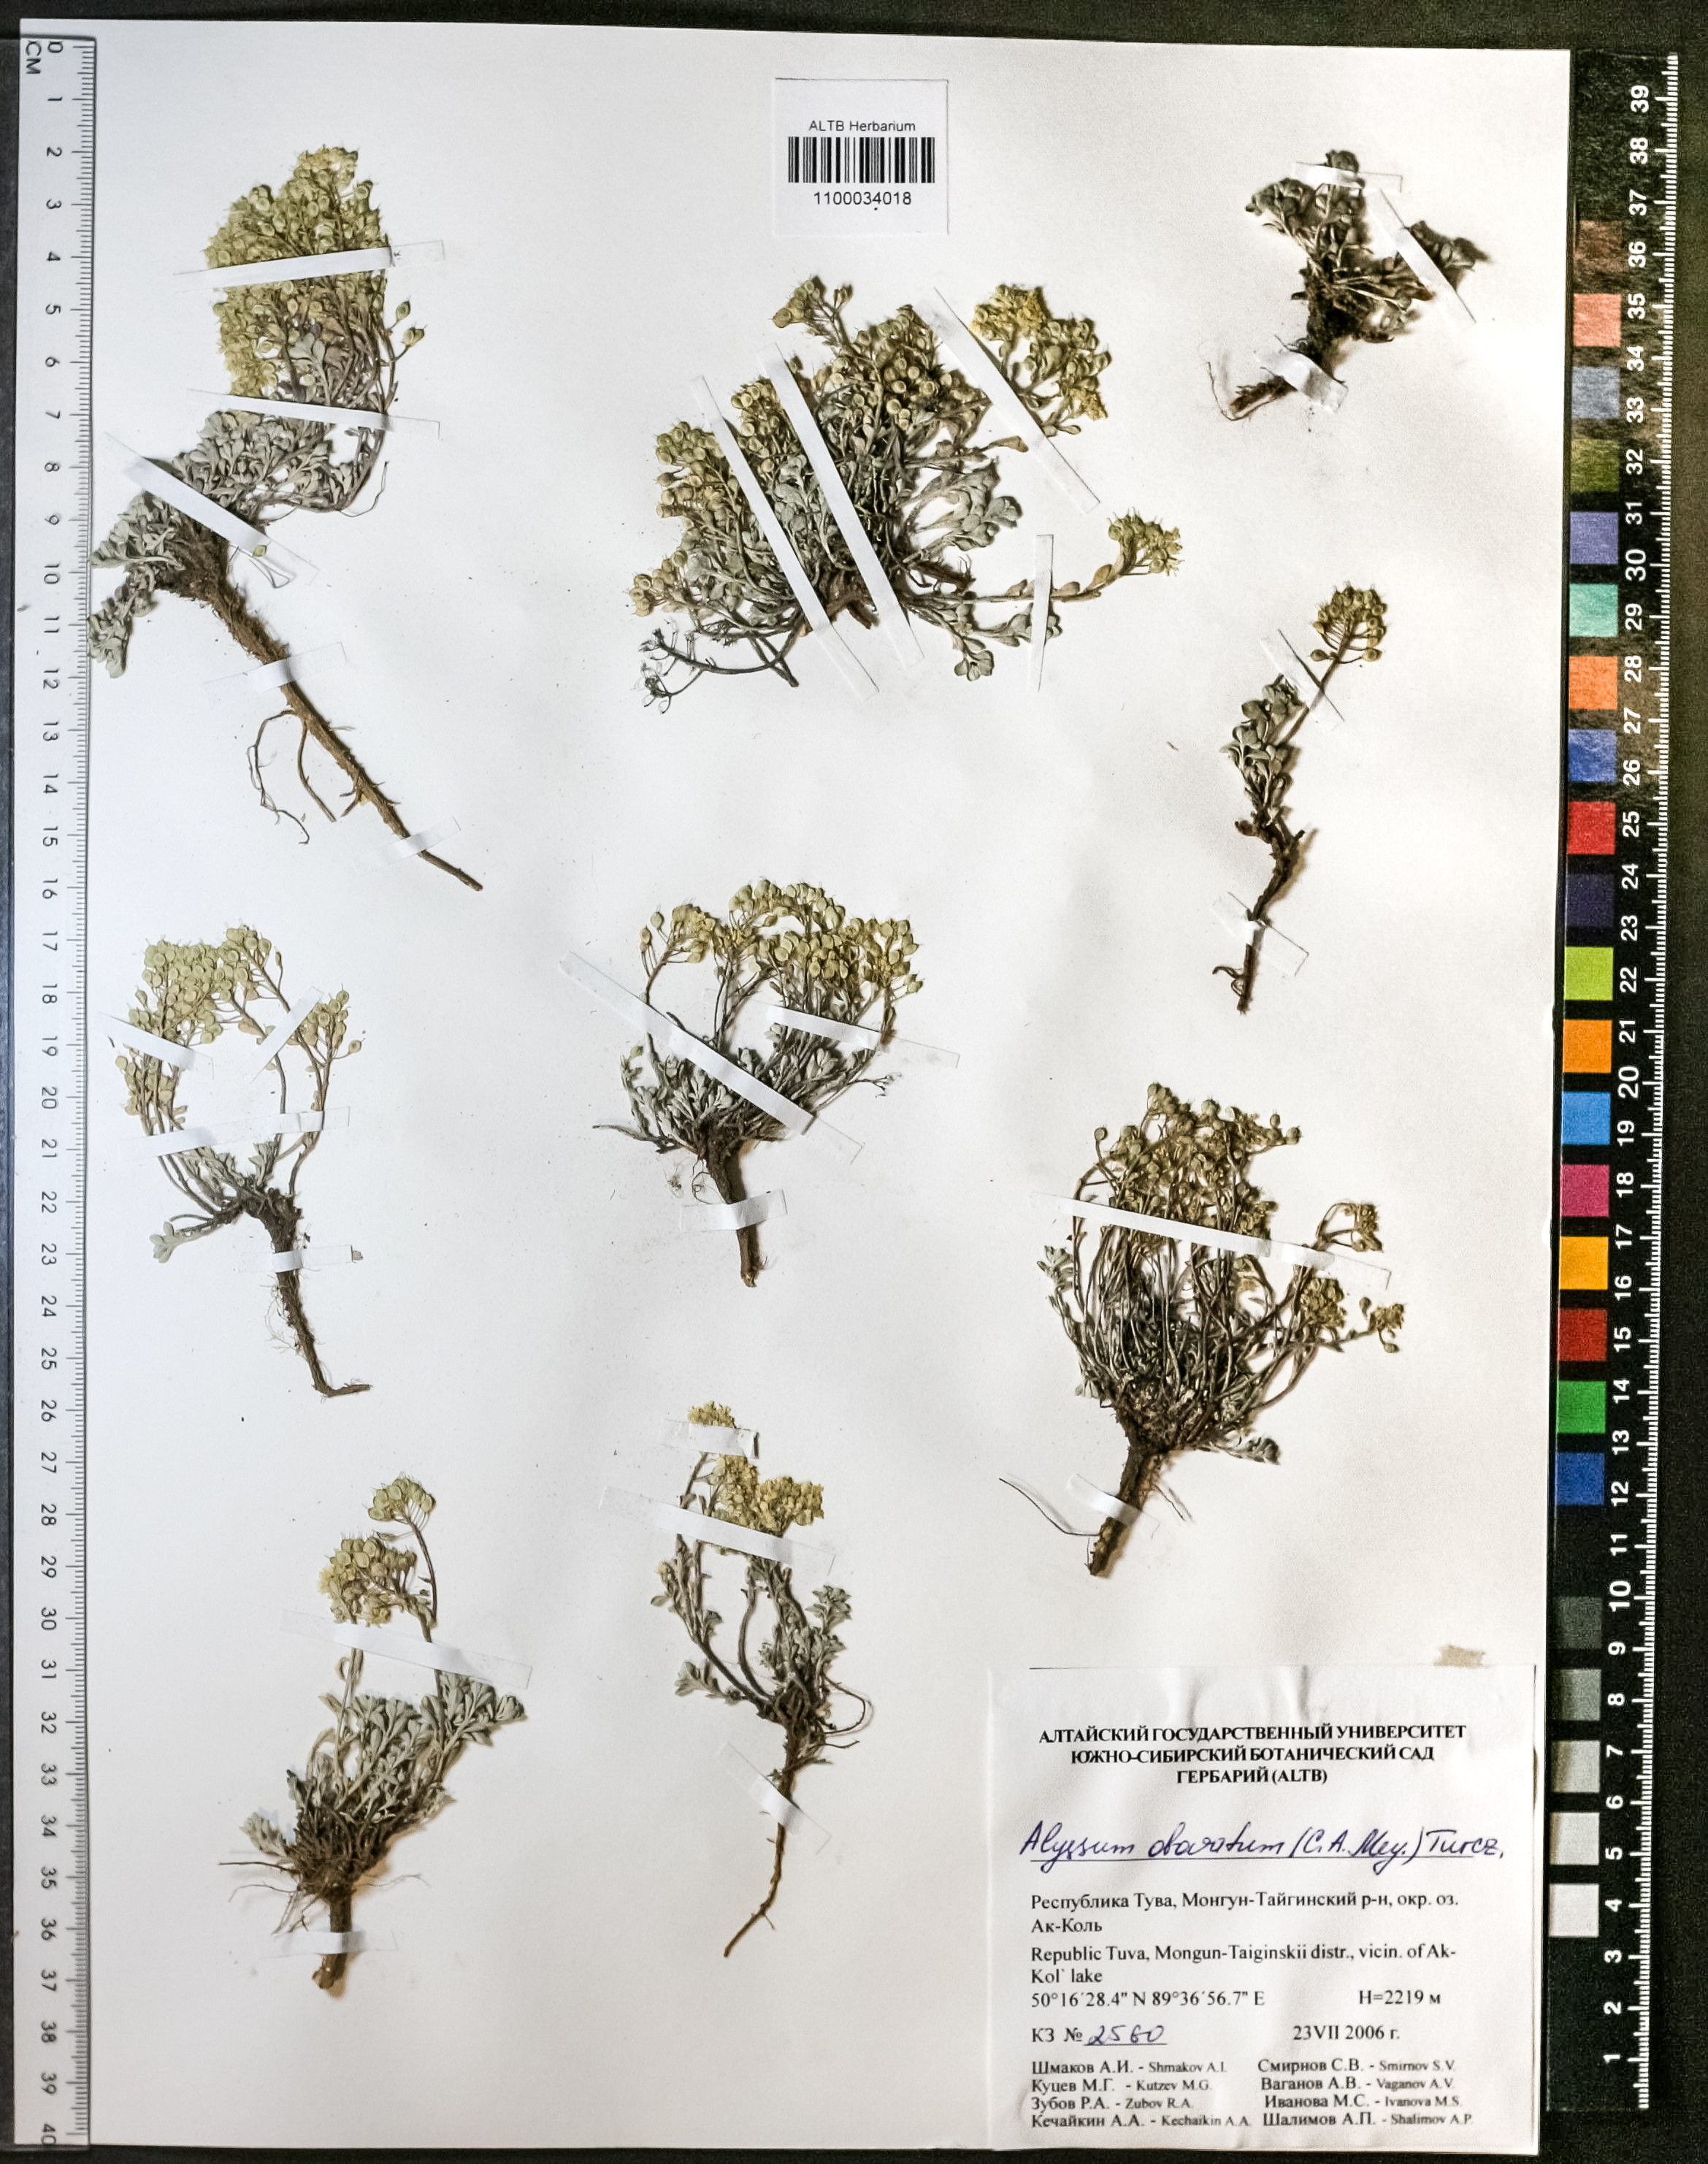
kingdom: Plantae
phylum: Tracheophyta
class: Magnoliopsida
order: Brassicales
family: Brassicaceae
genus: Odontarrhena
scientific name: Odontarrhena obovata
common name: American alyssum
